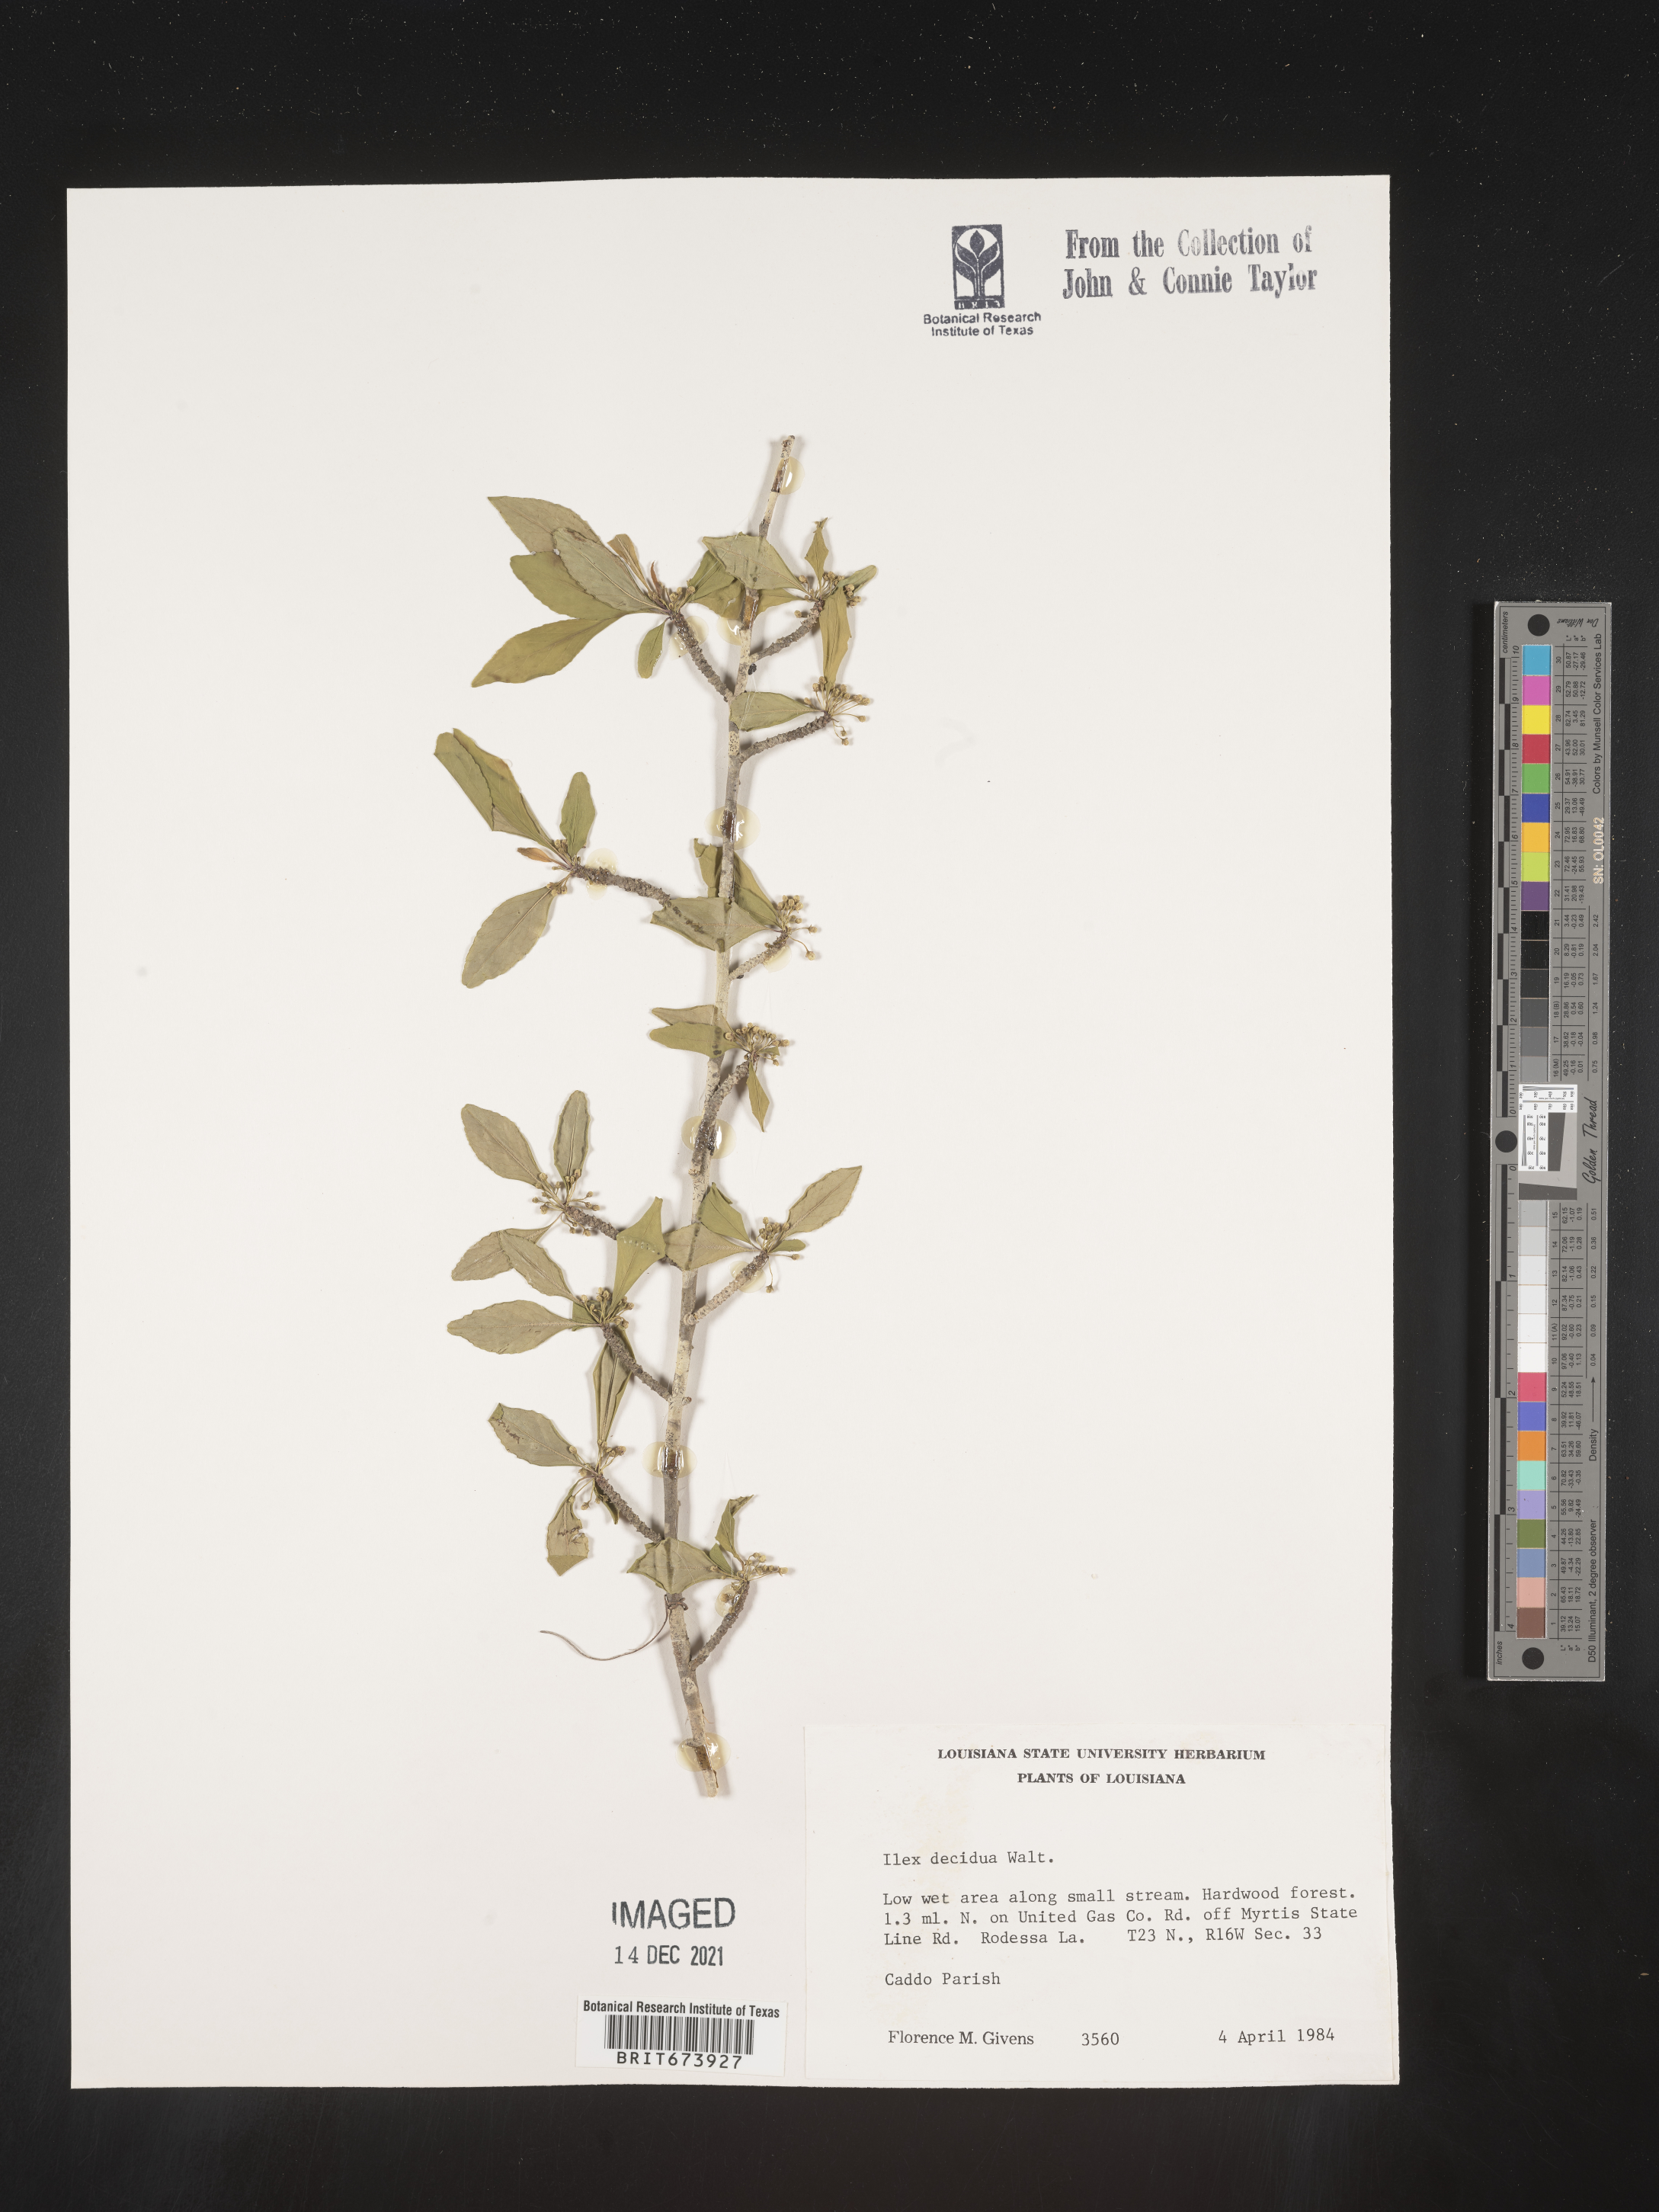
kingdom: Plantae
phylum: Tracheophyta
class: Magnoliopsida
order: Aquifoliales
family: Aquifoliaceae
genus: Ilex
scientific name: Ilex decidua
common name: Possum-haw
